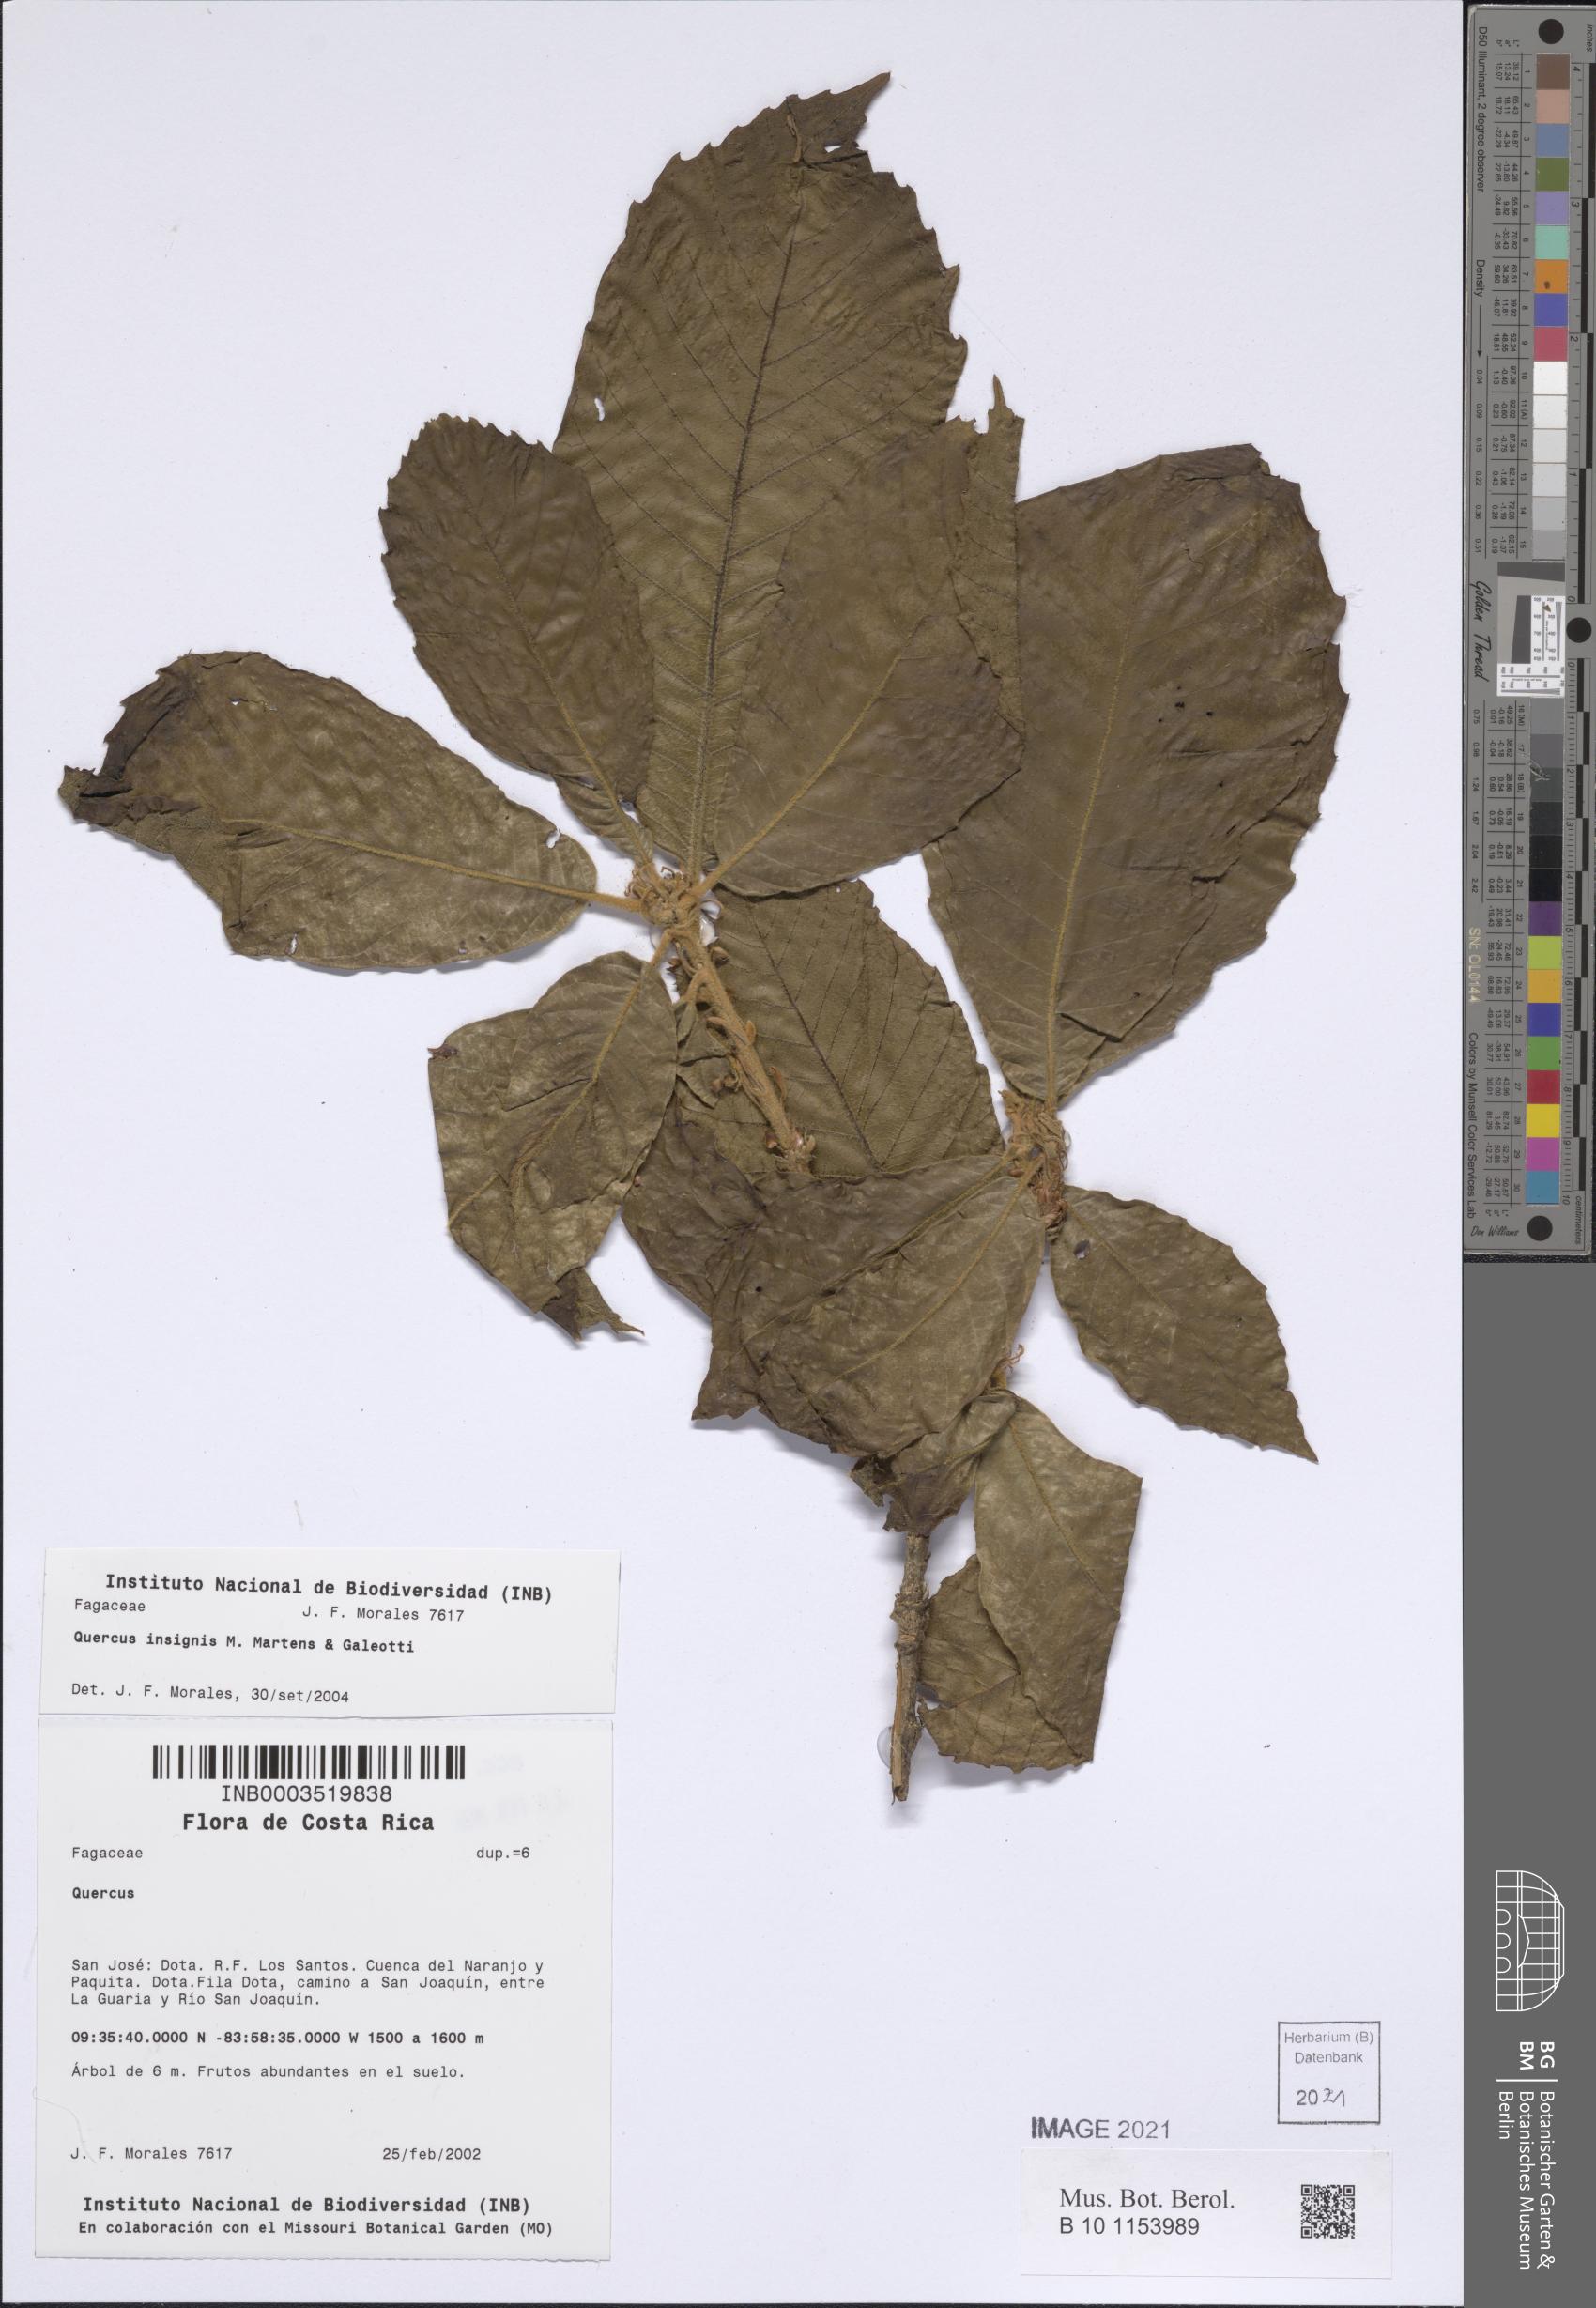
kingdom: Plantae
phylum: Tracheophyta
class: Magnoliopsida
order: Fagales
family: Fagaceae
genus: Quercus
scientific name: Quercus insignis
